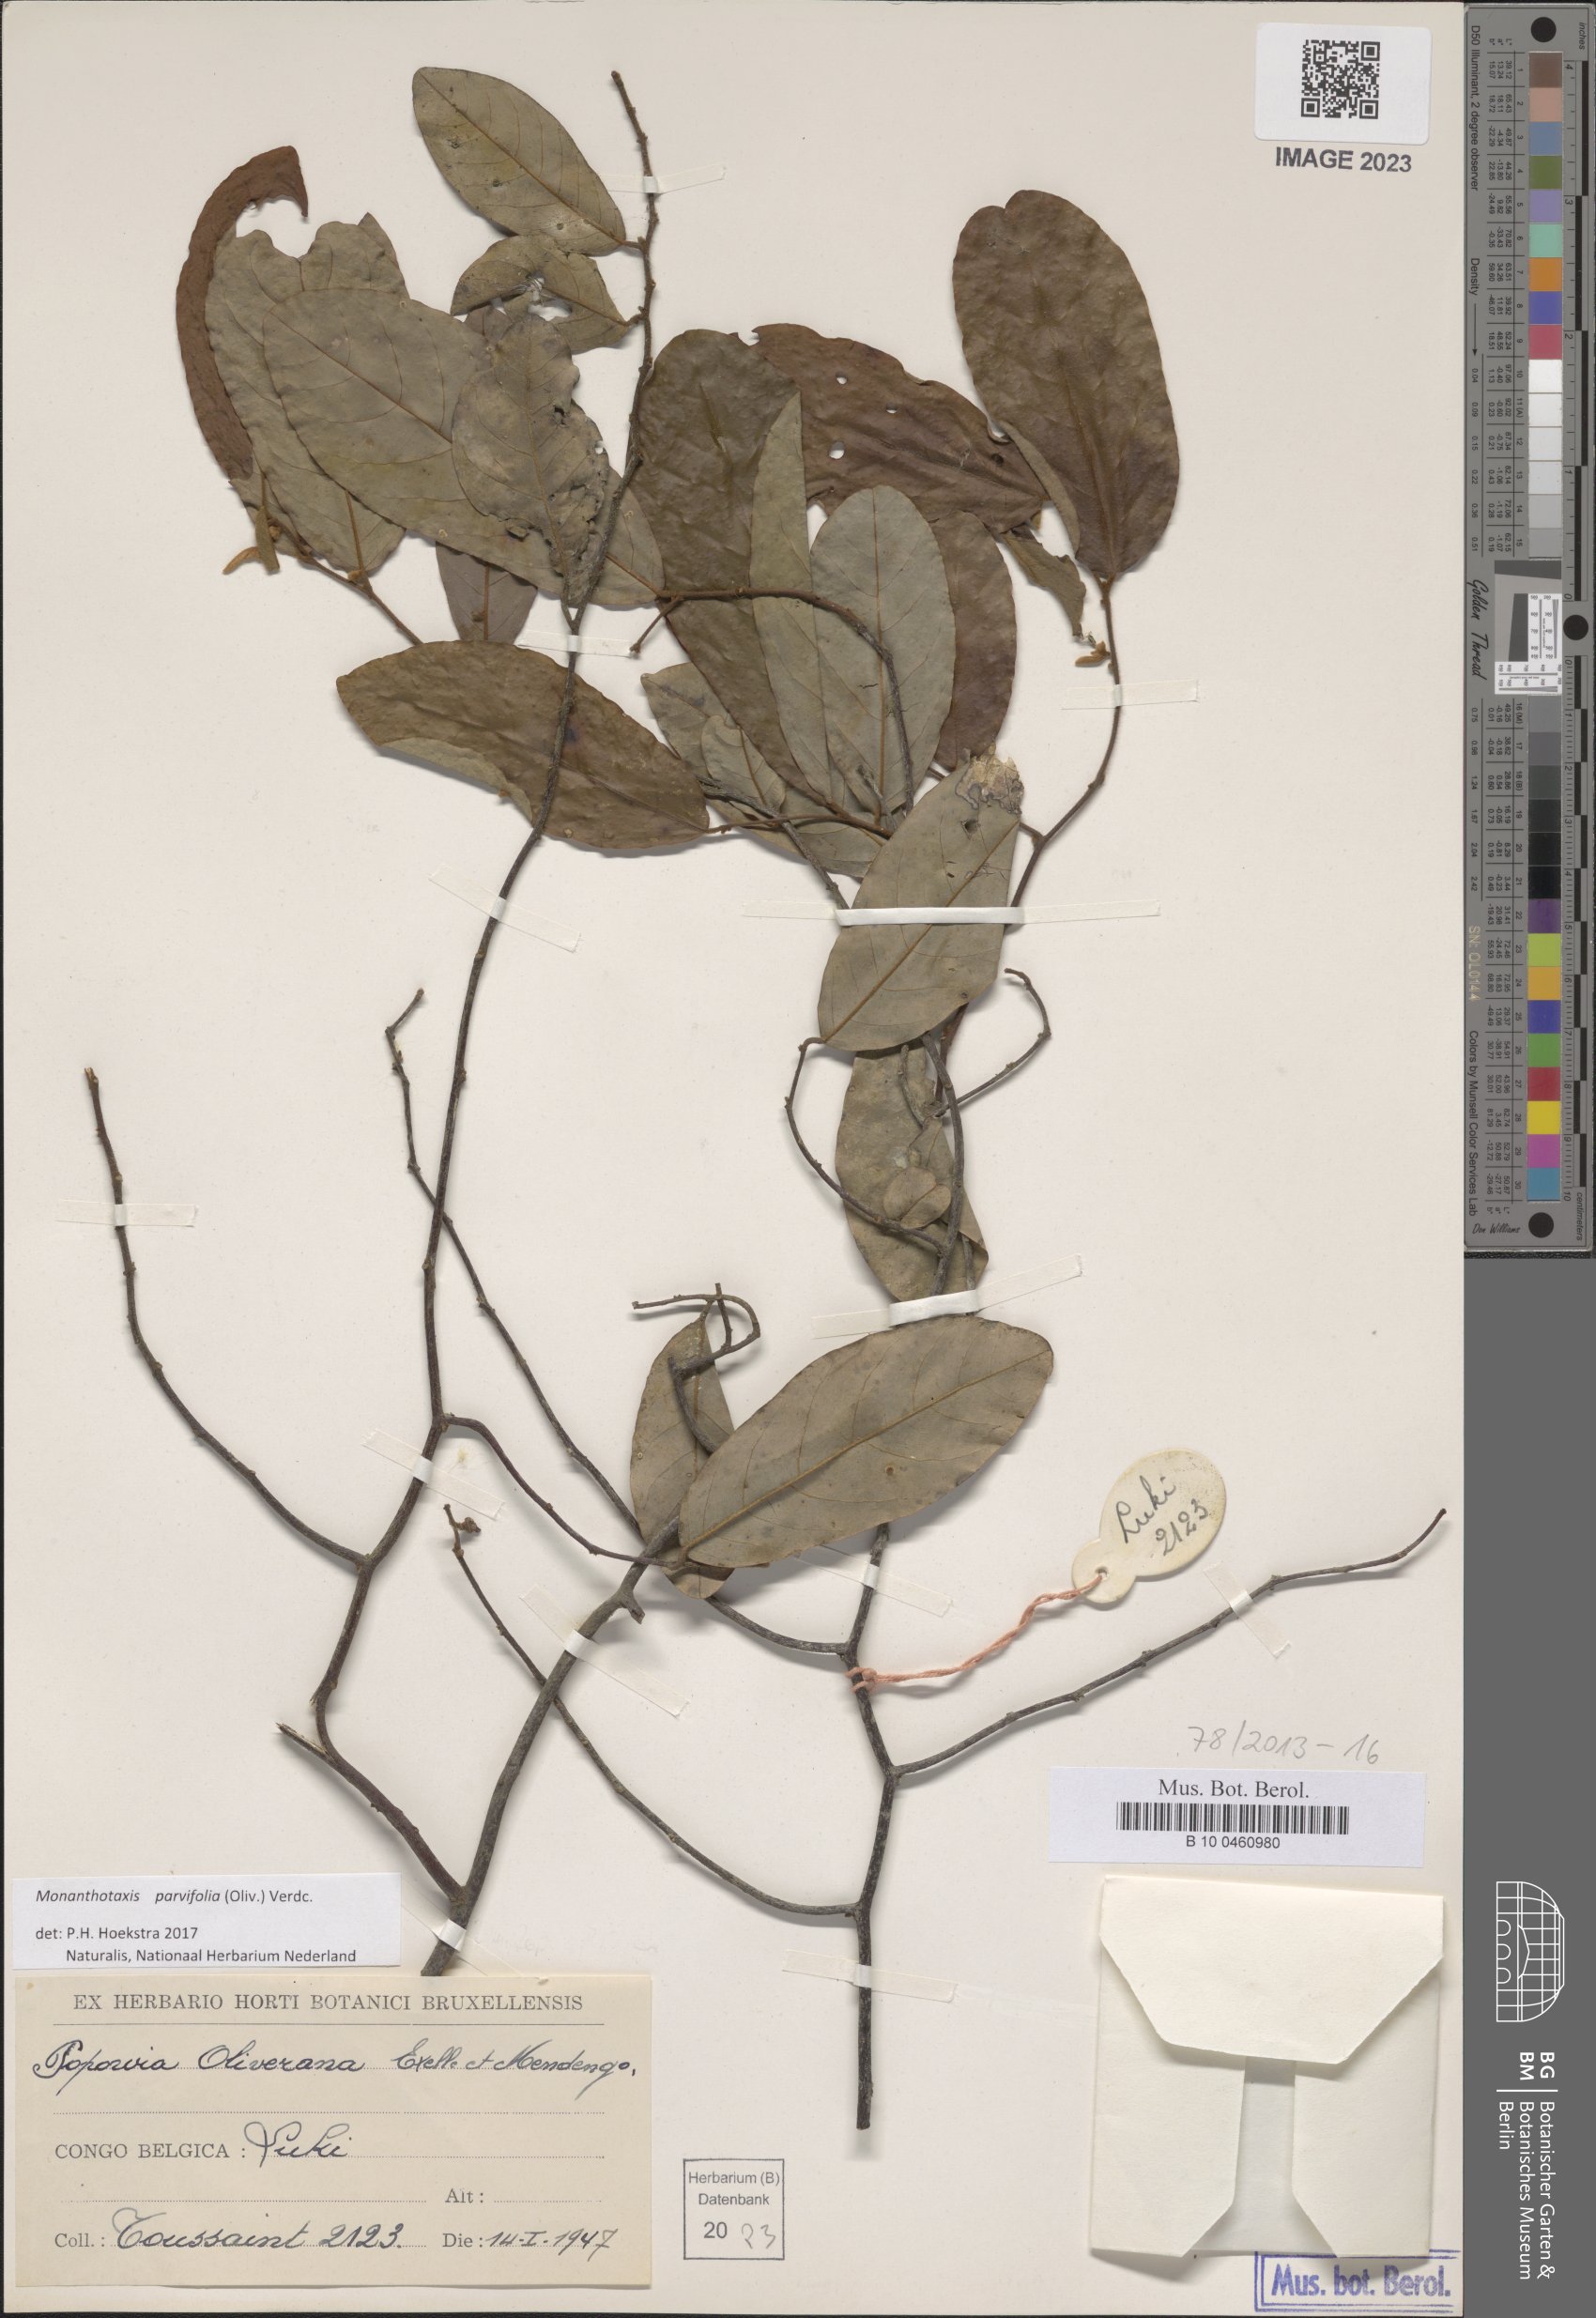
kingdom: Plantae
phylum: Tracheophyta
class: Magnoliopsida
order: Magnoliales
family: Annonaceae
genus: Monanthotaxis
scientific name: Monanthotaxis parvifolia
